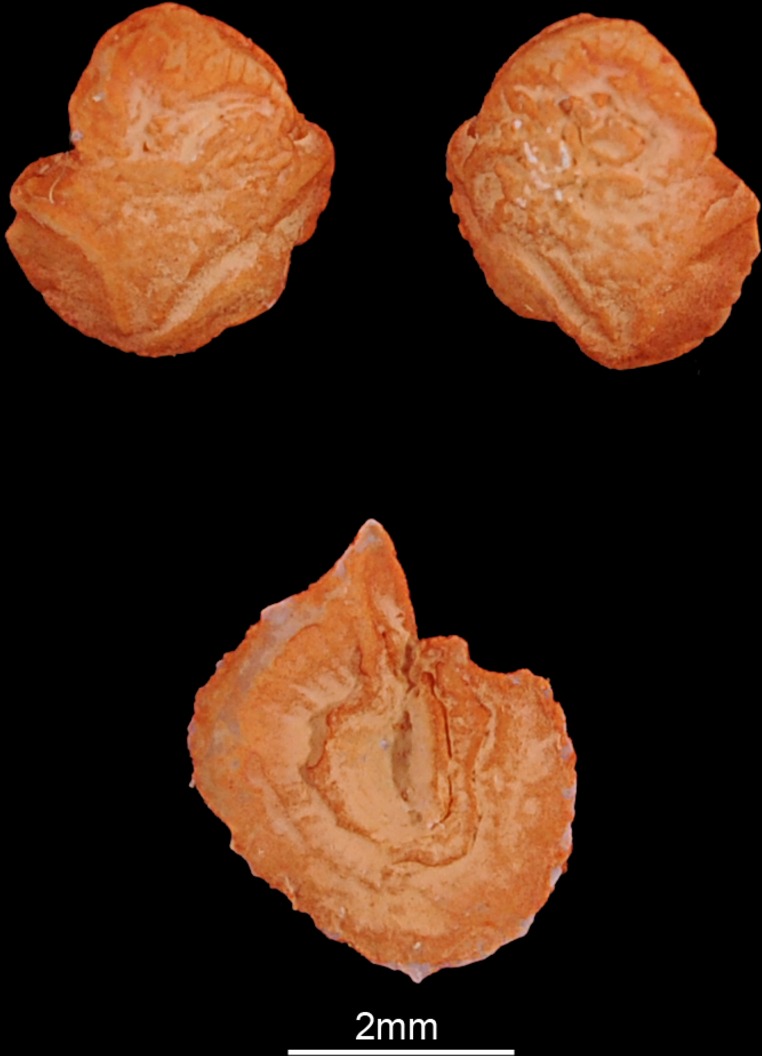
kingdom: Animalia
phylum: Chordata
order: Cypriniformes
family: Cyprinidae
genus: Rutilus
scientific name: Rutilus rutilus
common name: Roach
